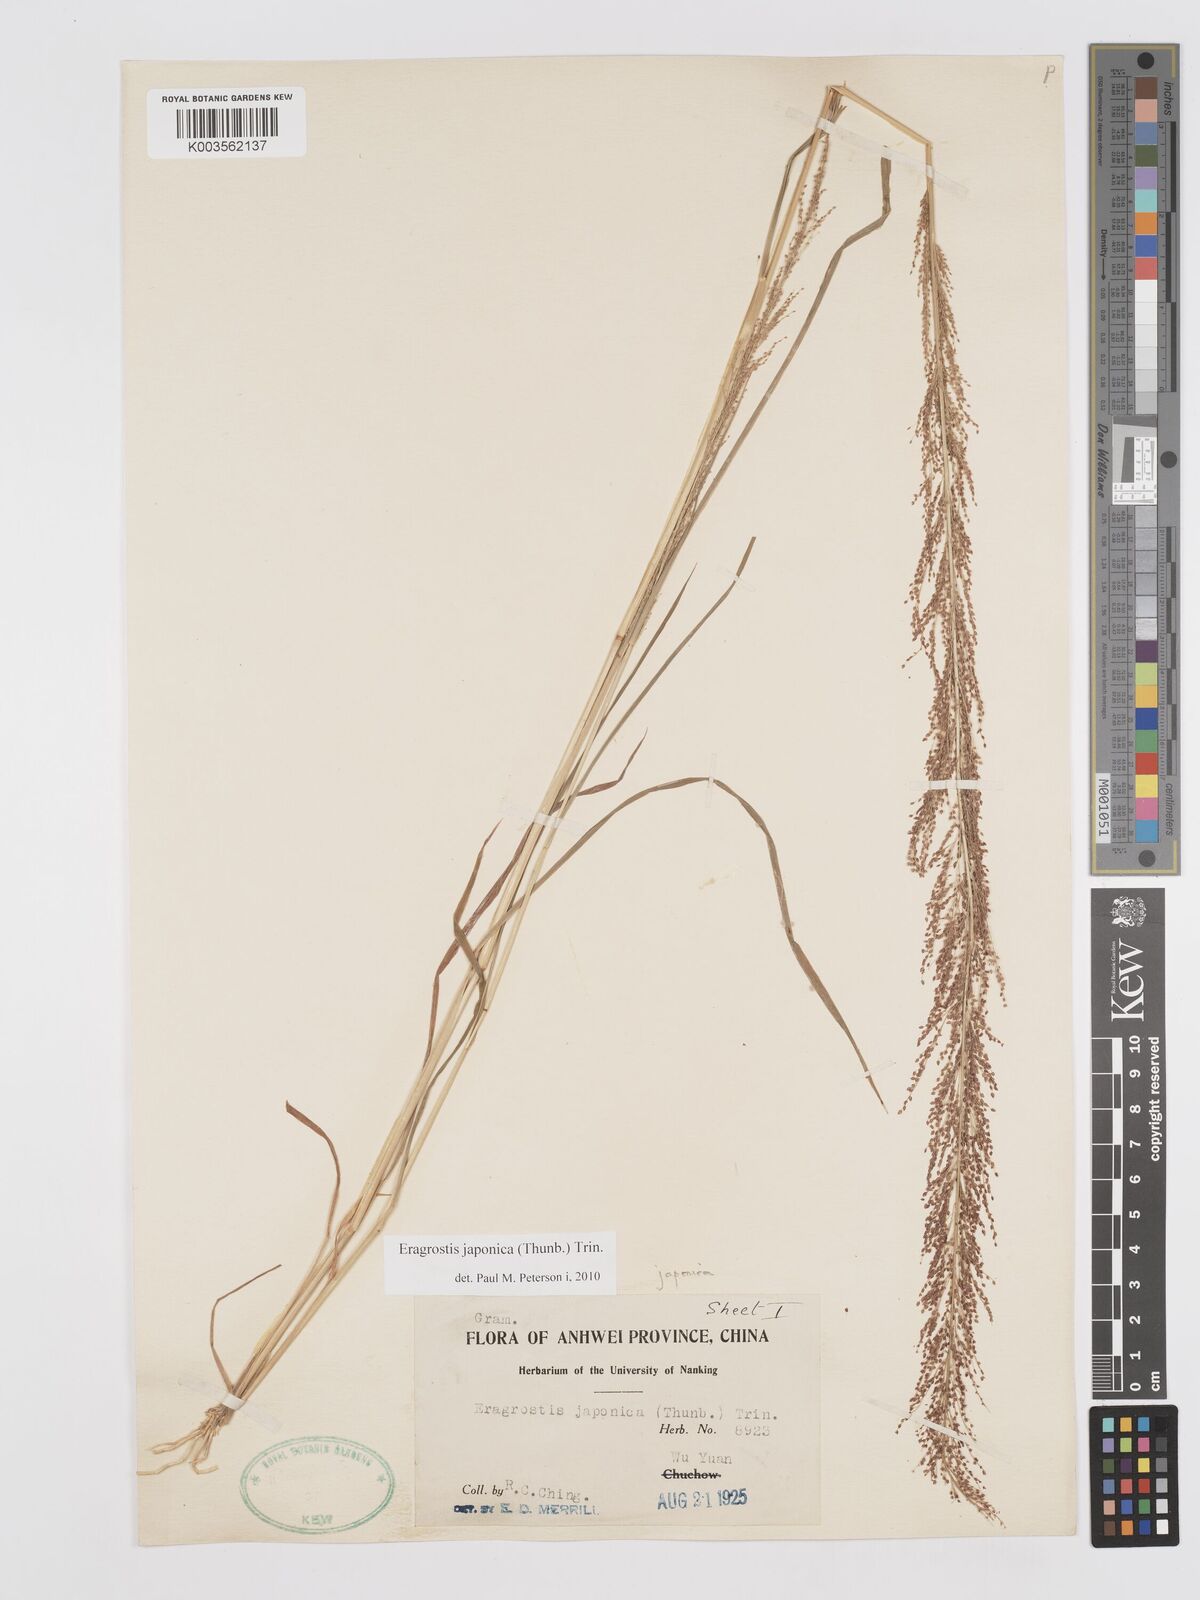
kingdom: Plantae
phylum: Tracheophyta
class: Liliopsida
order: Poales
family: Poaceae
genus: Eragrostis
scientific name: Eragrostis japonica
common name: Pond lovegrass
